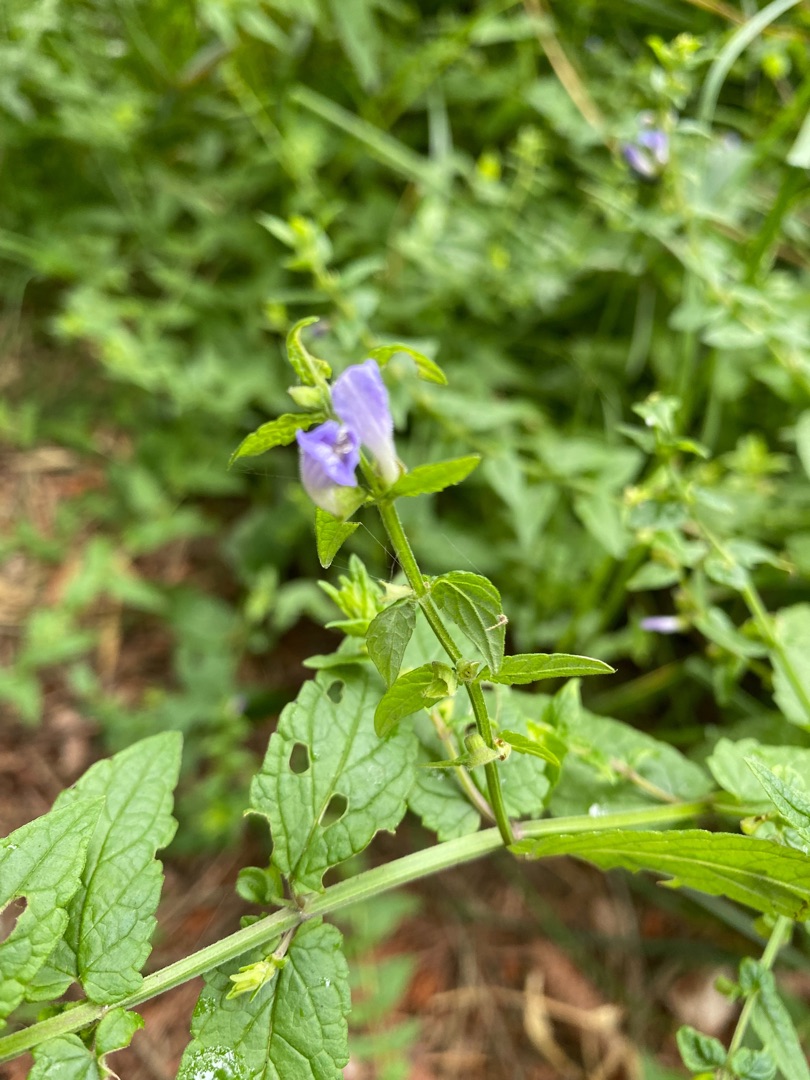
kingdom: Plantae
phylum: Tracheophyta
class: Magnoliopsida
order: Lamiales
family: Lamiaceae
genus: Scutellaria
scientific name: Scutellaria galericulata
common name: Almindelig skjolddrager
